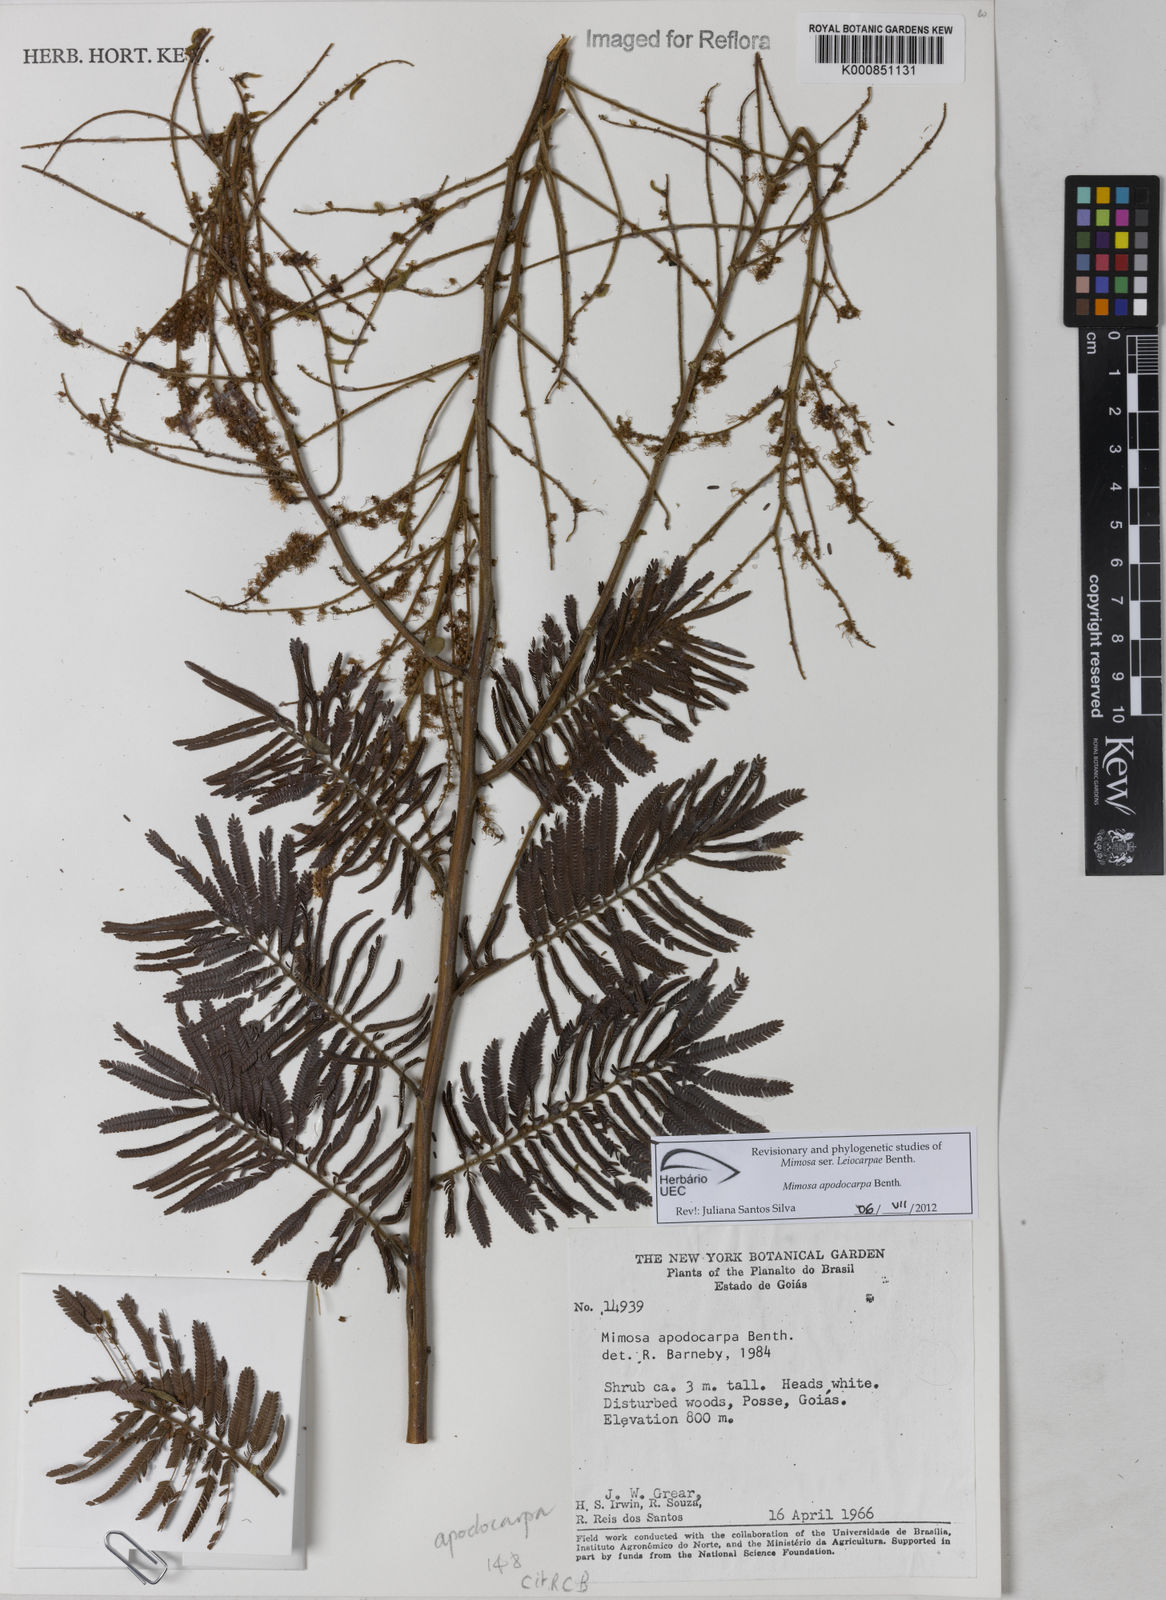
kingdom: Plantae
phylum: Tracheophyta
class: Magnoliopsida
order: Fabales
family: Fabaceae
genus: Mimosa
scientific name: Mimosa apodocarpa
